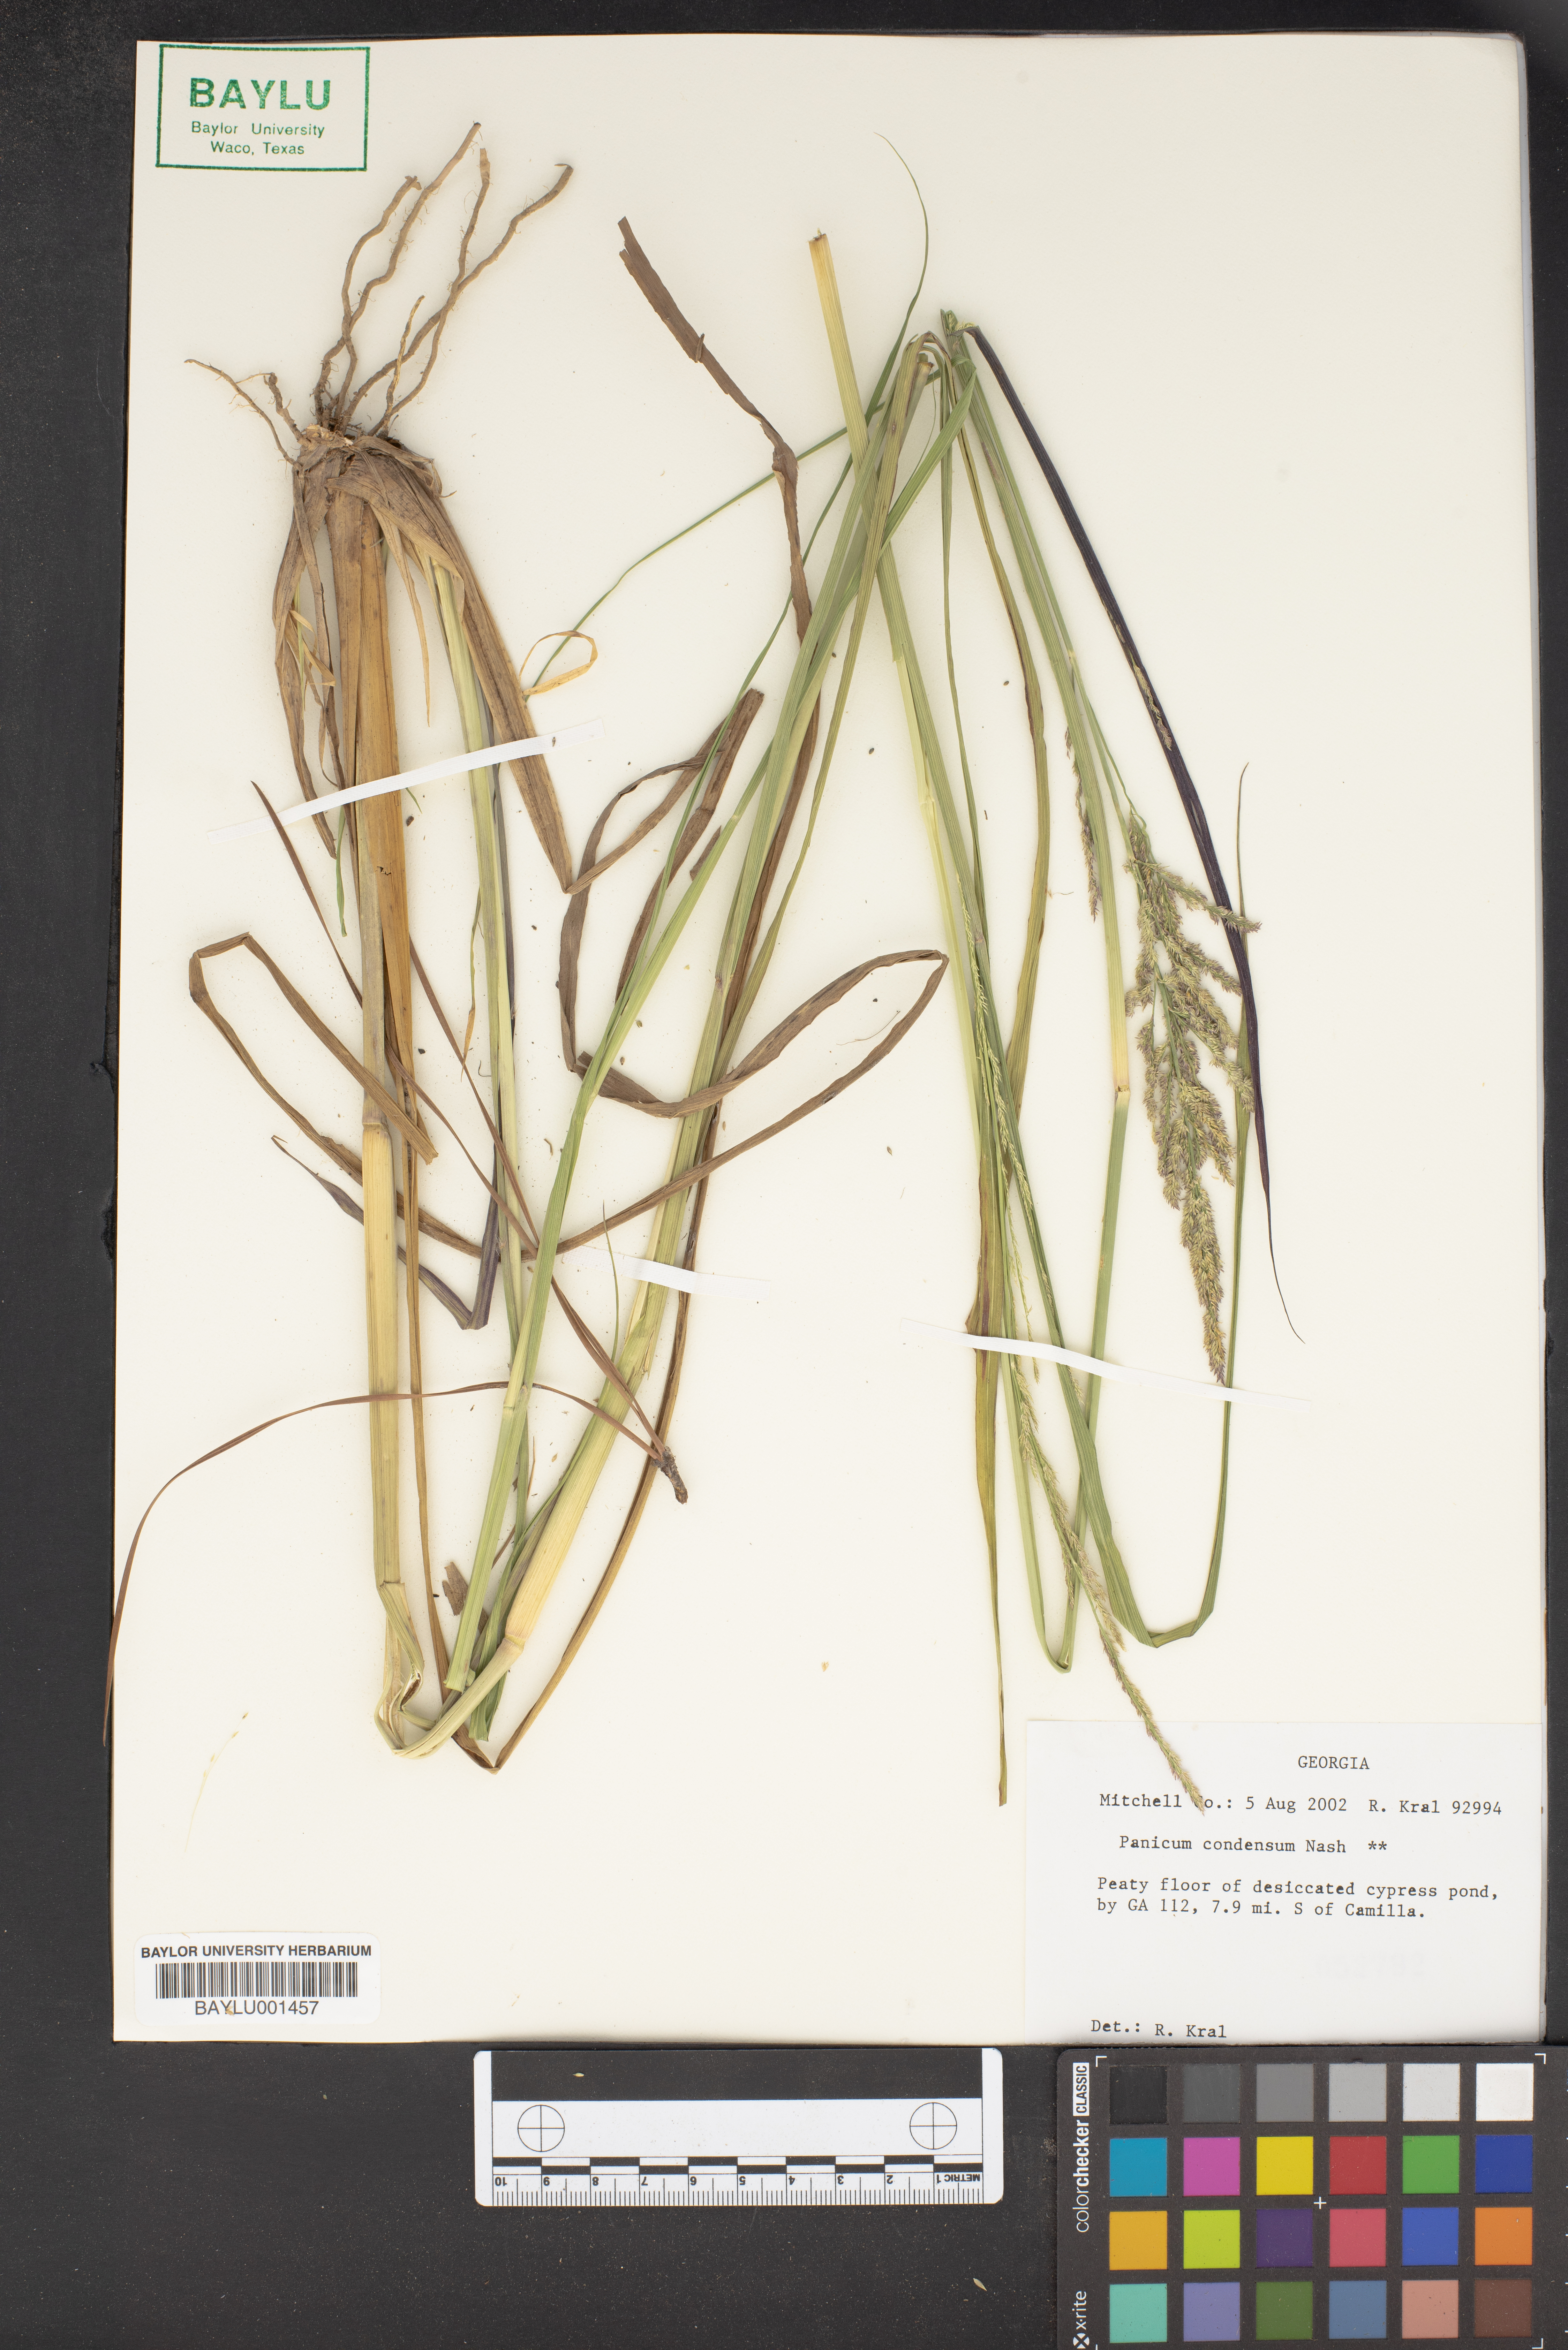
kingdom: Plantae
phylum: Tracheophyta
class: Liliopsida
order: Poales
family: Poaceae
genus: Coleataenia
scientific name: Coleataenia rigidula
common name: Redtop panicgrass
